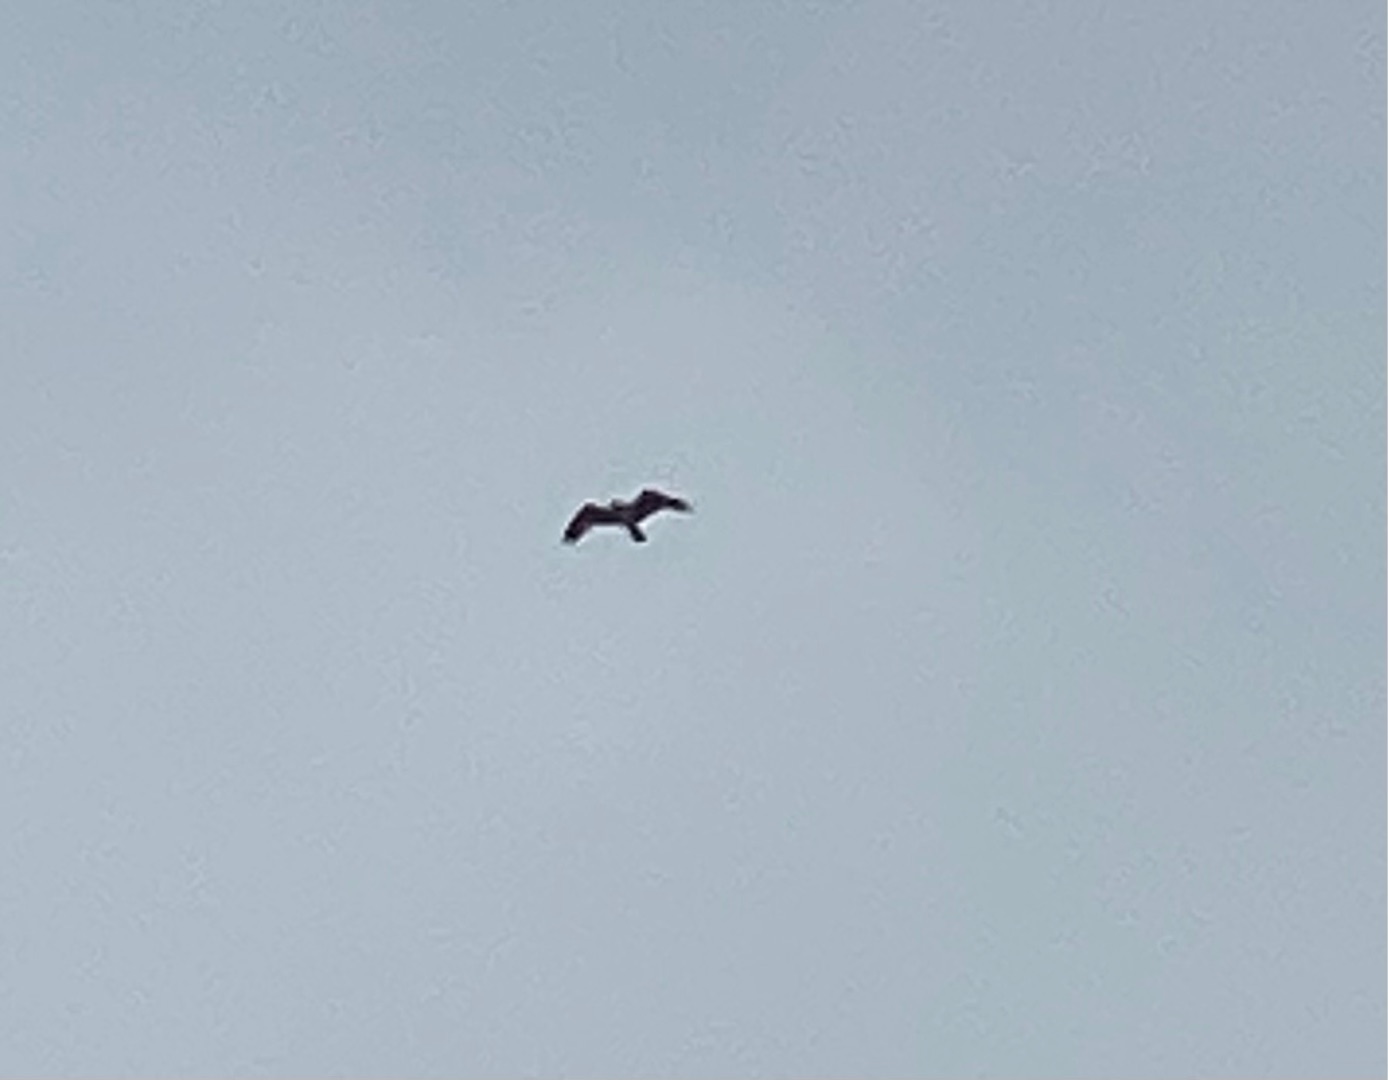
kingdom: Animalia
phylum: Chordata
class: Aves
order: Accipitriformes
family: Pandionidae
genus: Pandion
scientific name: Pandion haliaetus
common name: Fiskeørn
